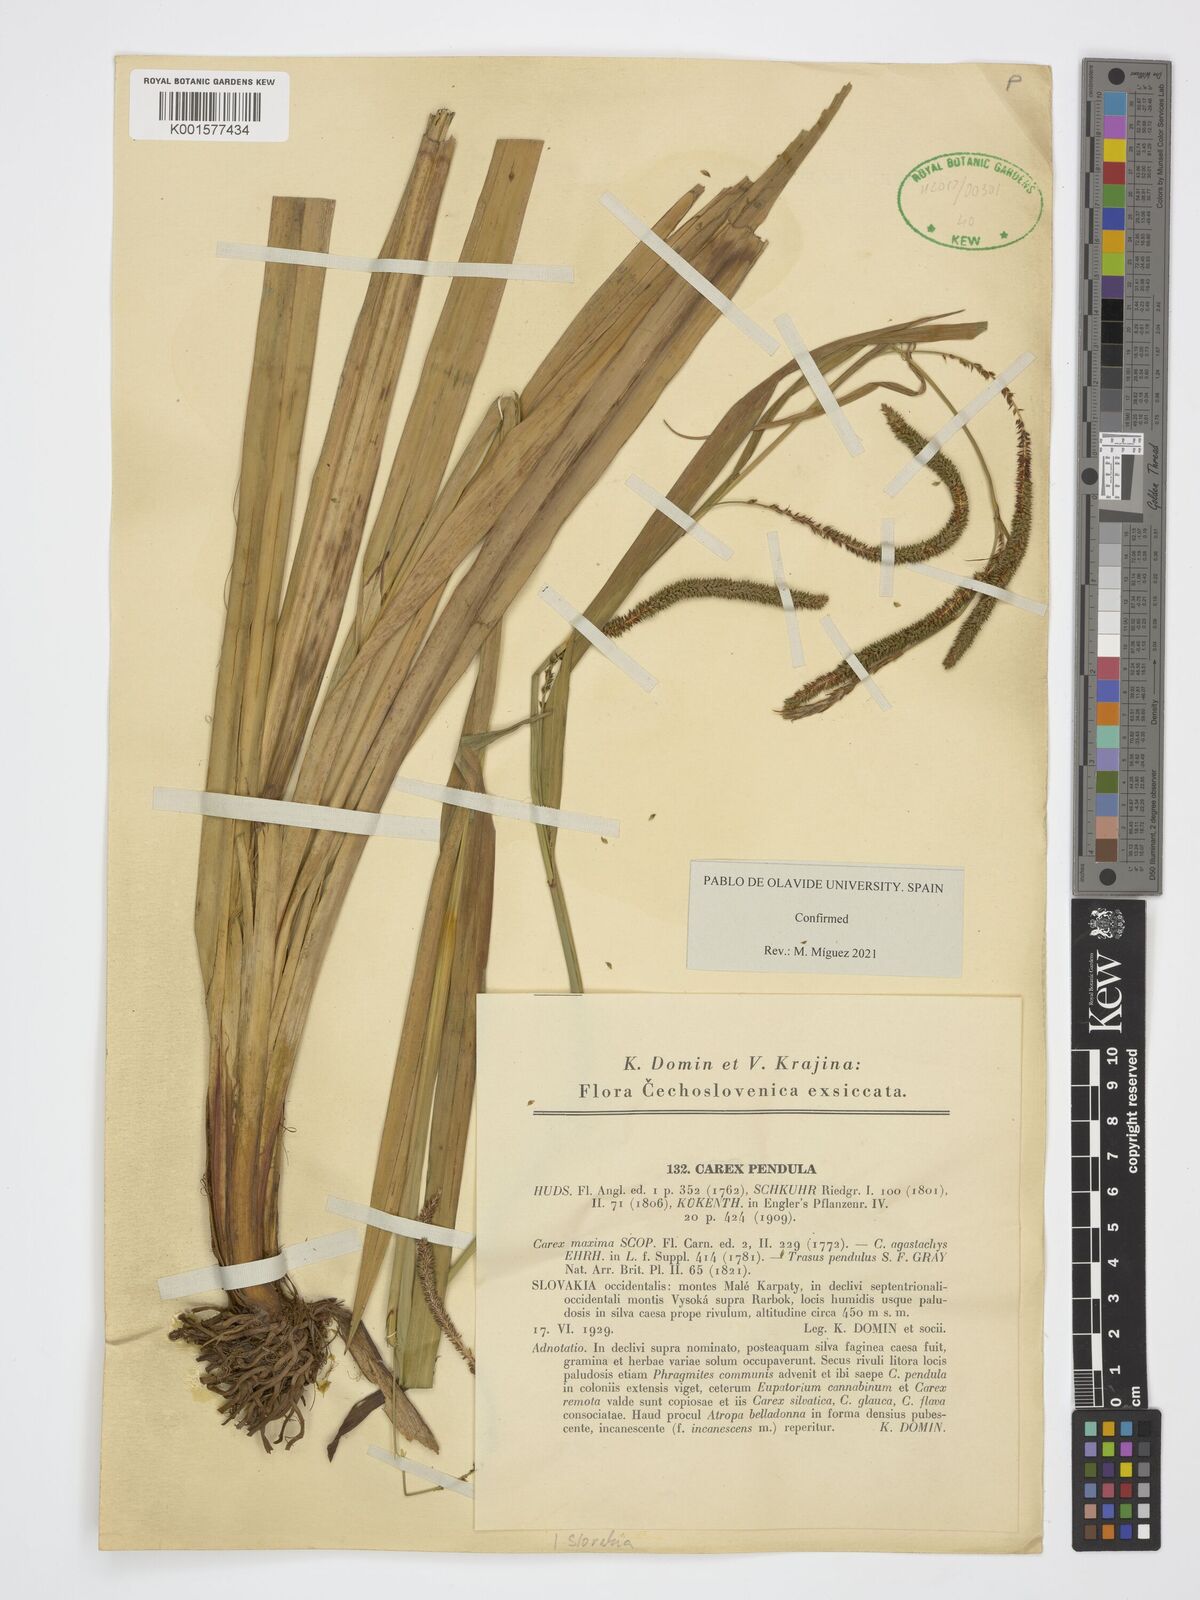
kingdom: Plantae
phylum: Tracheophyta
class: Liliopsida
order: Poales
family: Cyperaceae
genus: Carex
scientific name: Carex pendula
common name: Pendulous sedge
